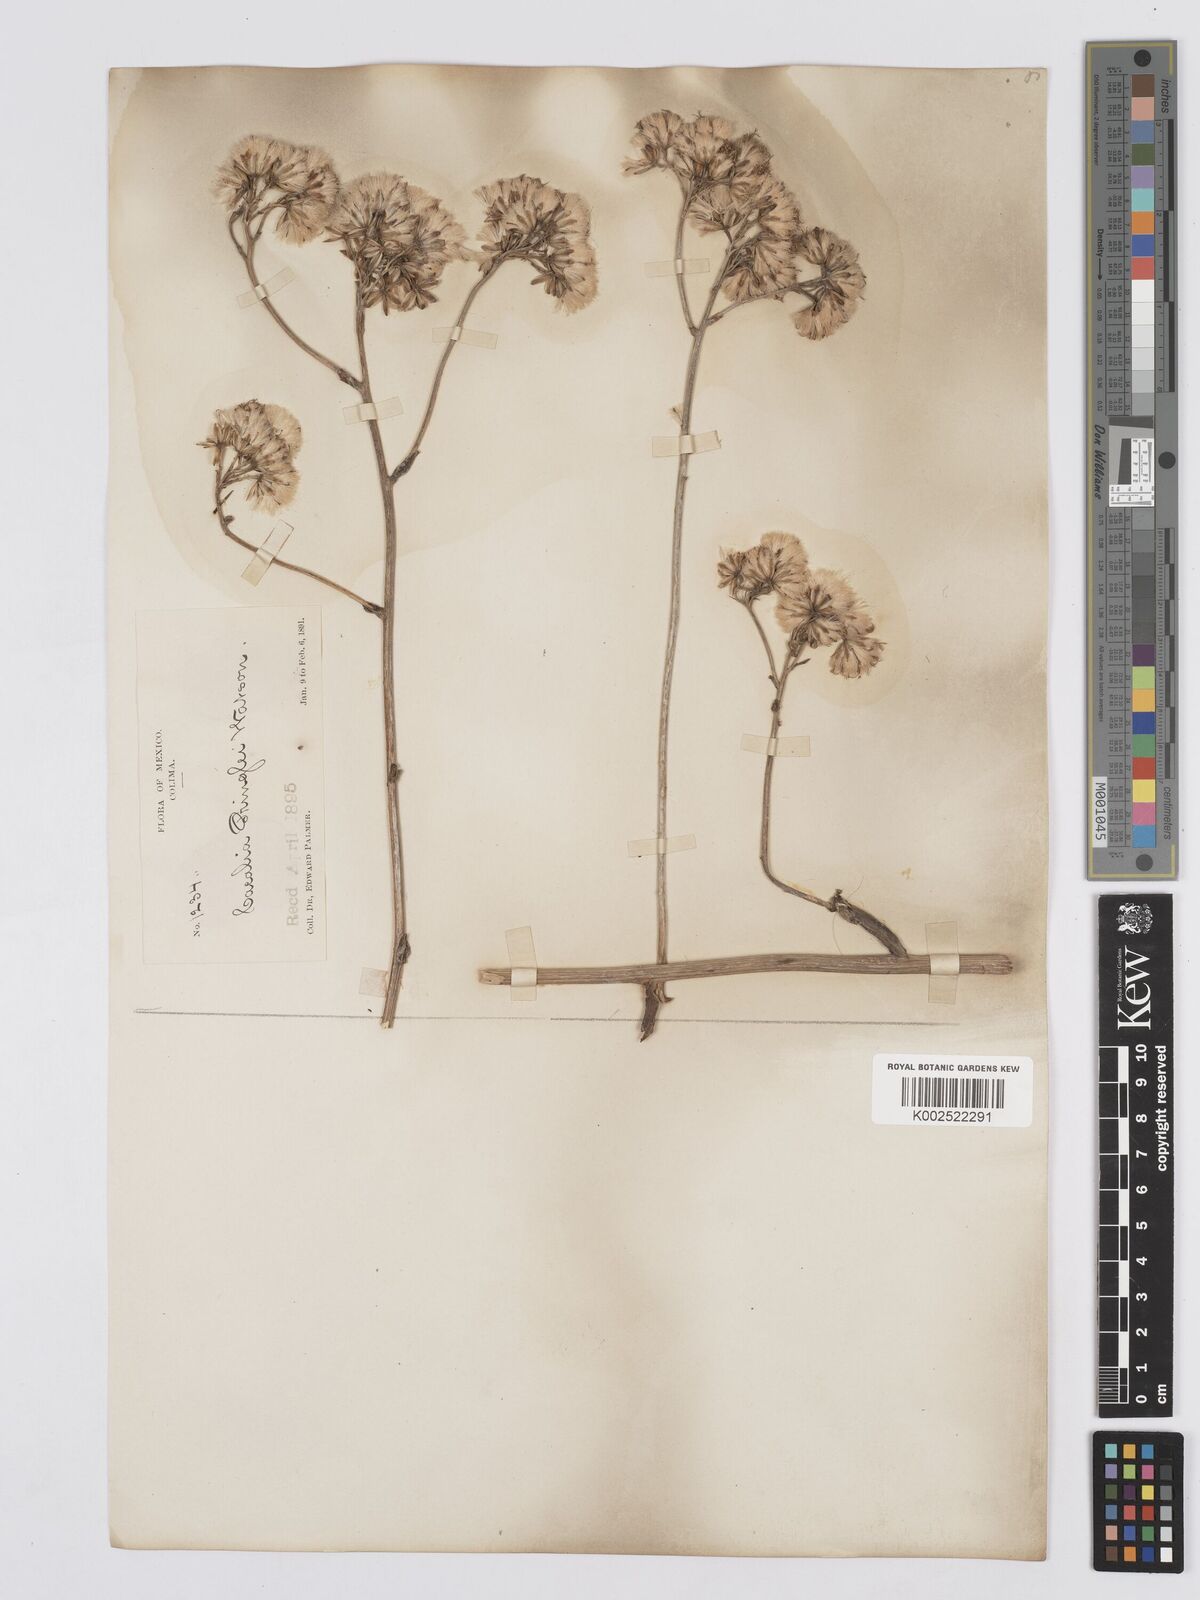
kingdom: Plantae
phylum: Tracheophyta
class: Magnoliopsida
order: Asterales
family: Asteraceae
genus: Psacalium
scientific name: Psacalium pringlei
